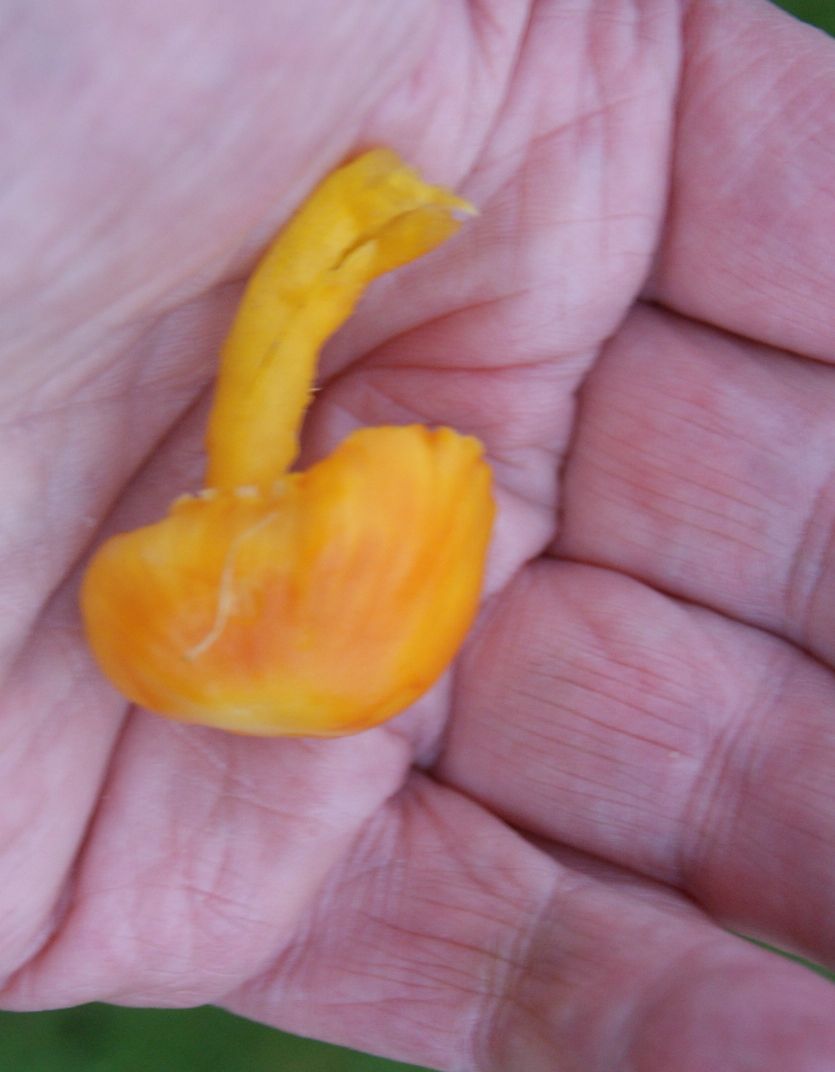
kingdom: Fungi
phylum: Basidiomycota
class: Agaricomycetes
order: Agaricales
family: Hygrophoraceae
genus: Hygrocybe
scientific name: Hygrocybe aurantiosplendens
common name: orangegylden vokshat
